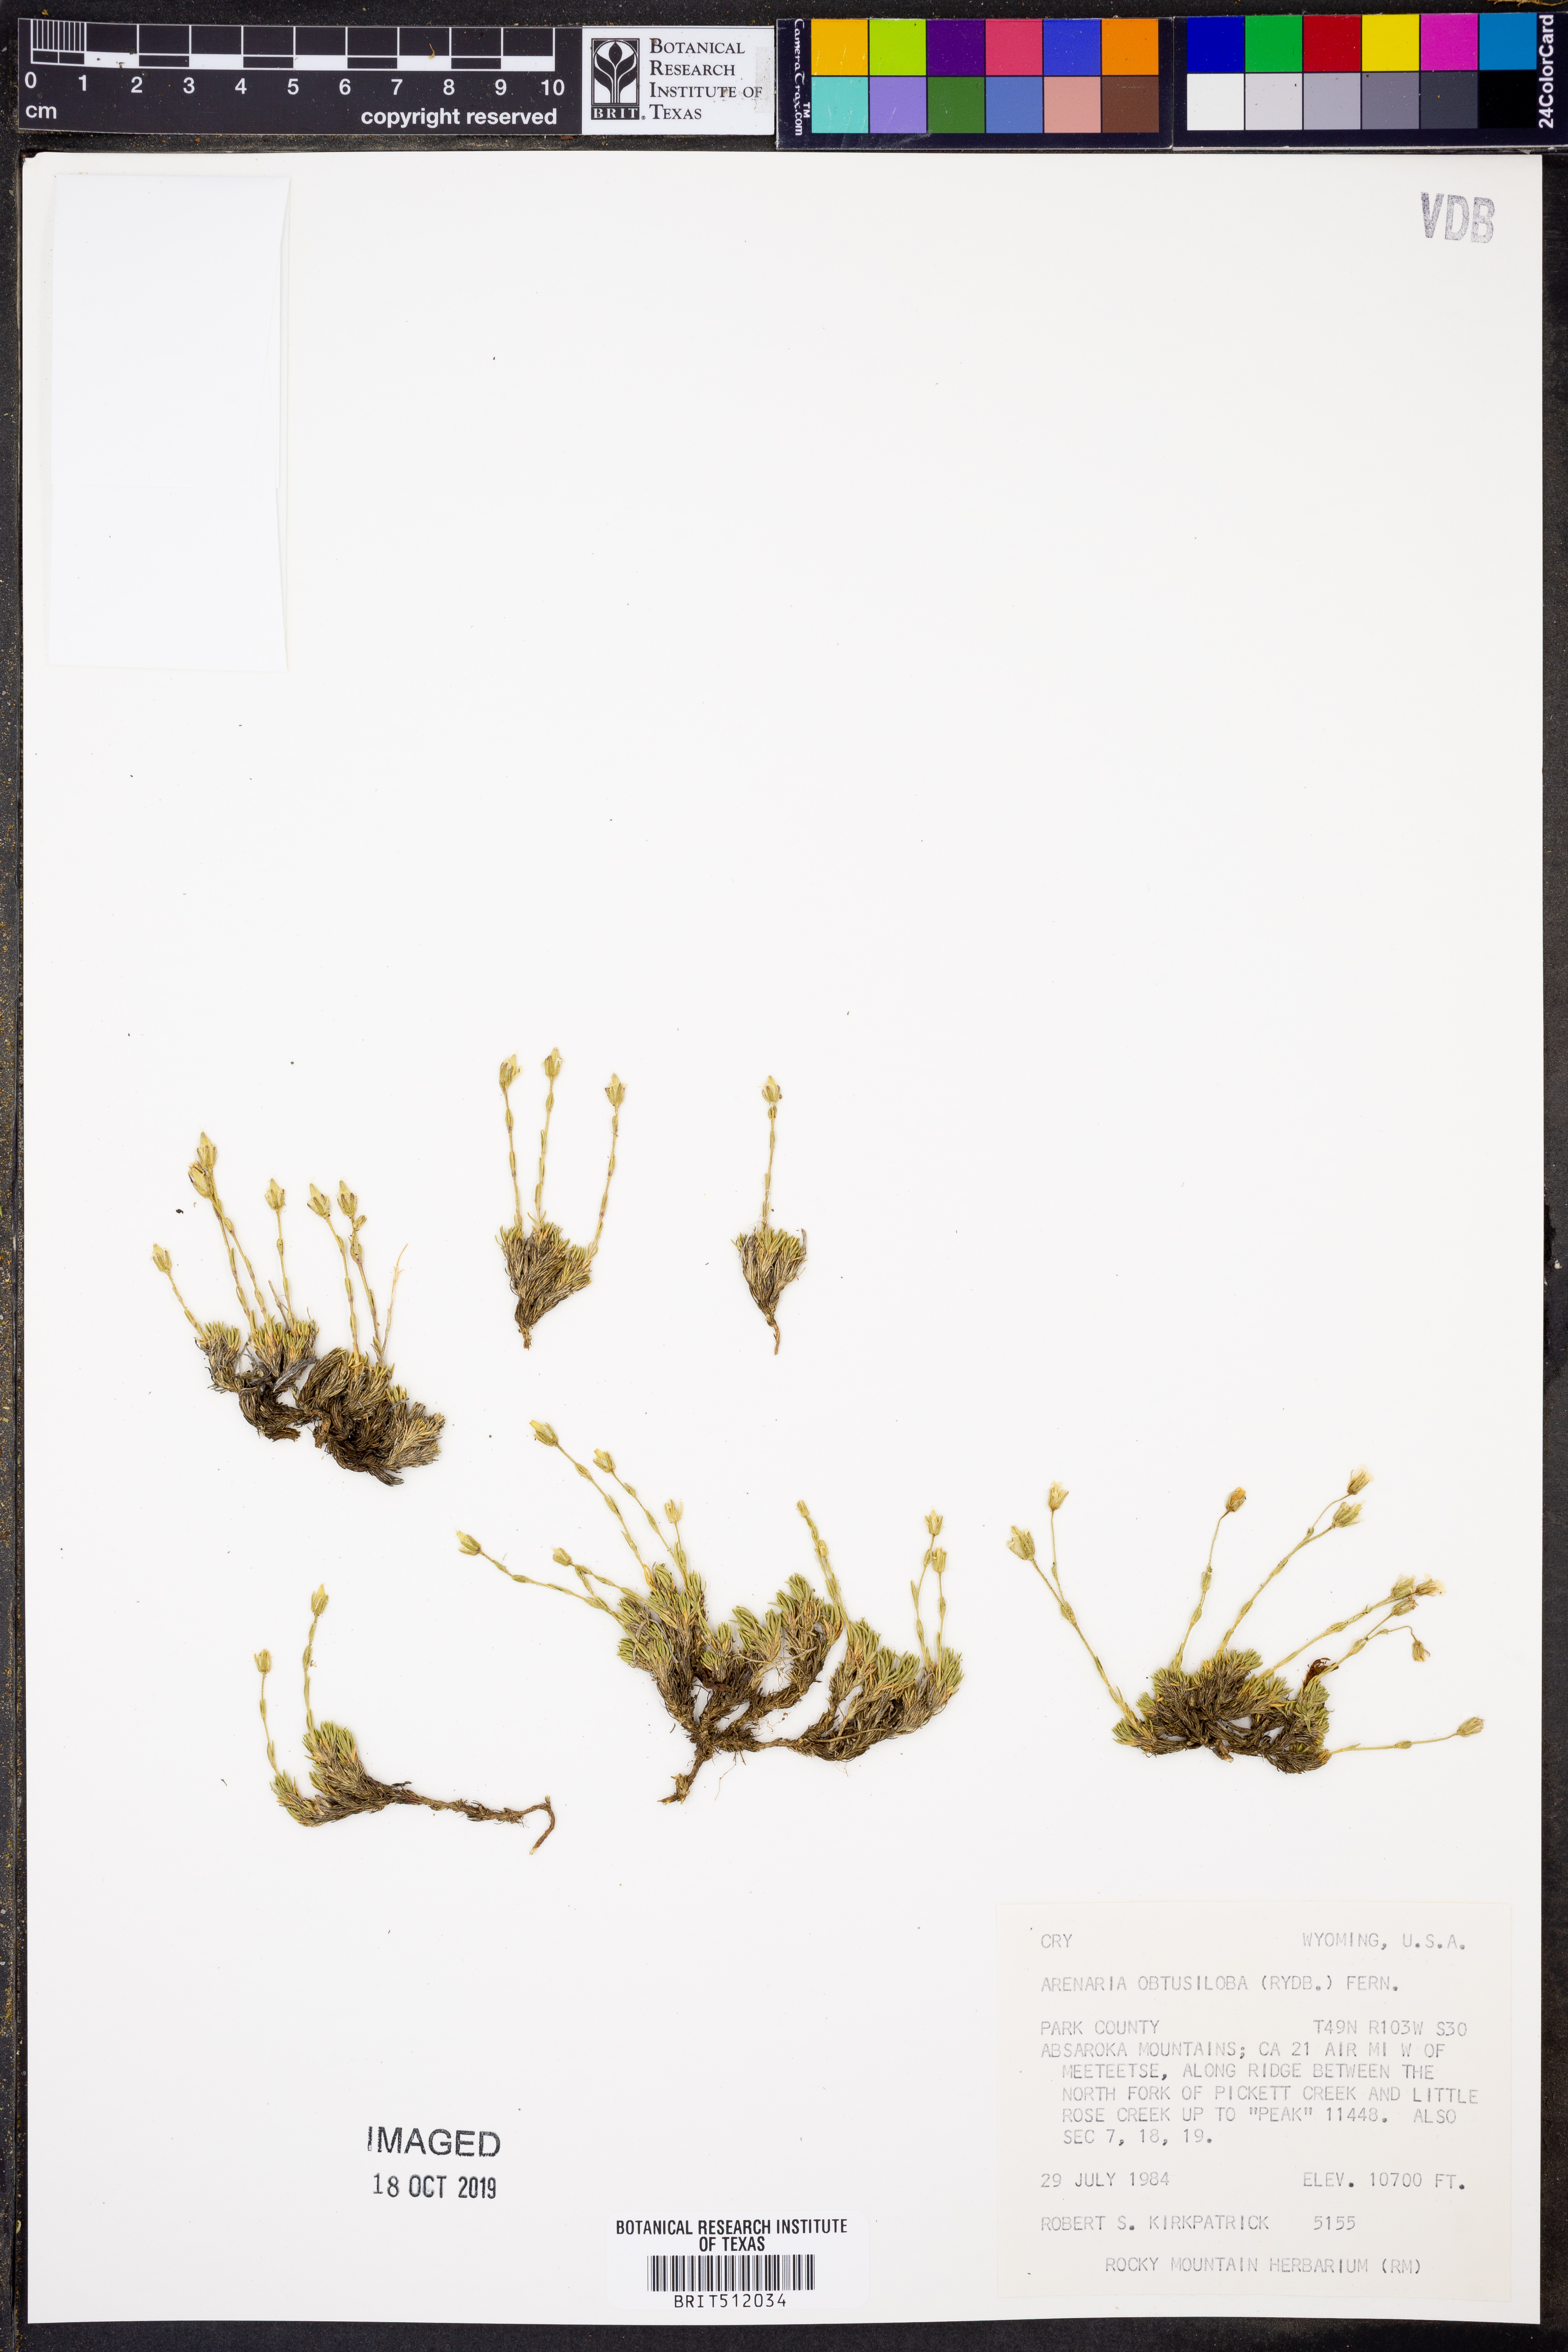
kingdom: Plantae
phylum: Tracheophyta
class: Magnoliopsida
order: Caryophyllales
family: Caryophyllaceae
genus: Cherleria
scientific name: Cherleria obtusiloba
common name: Alpine stitchwort
